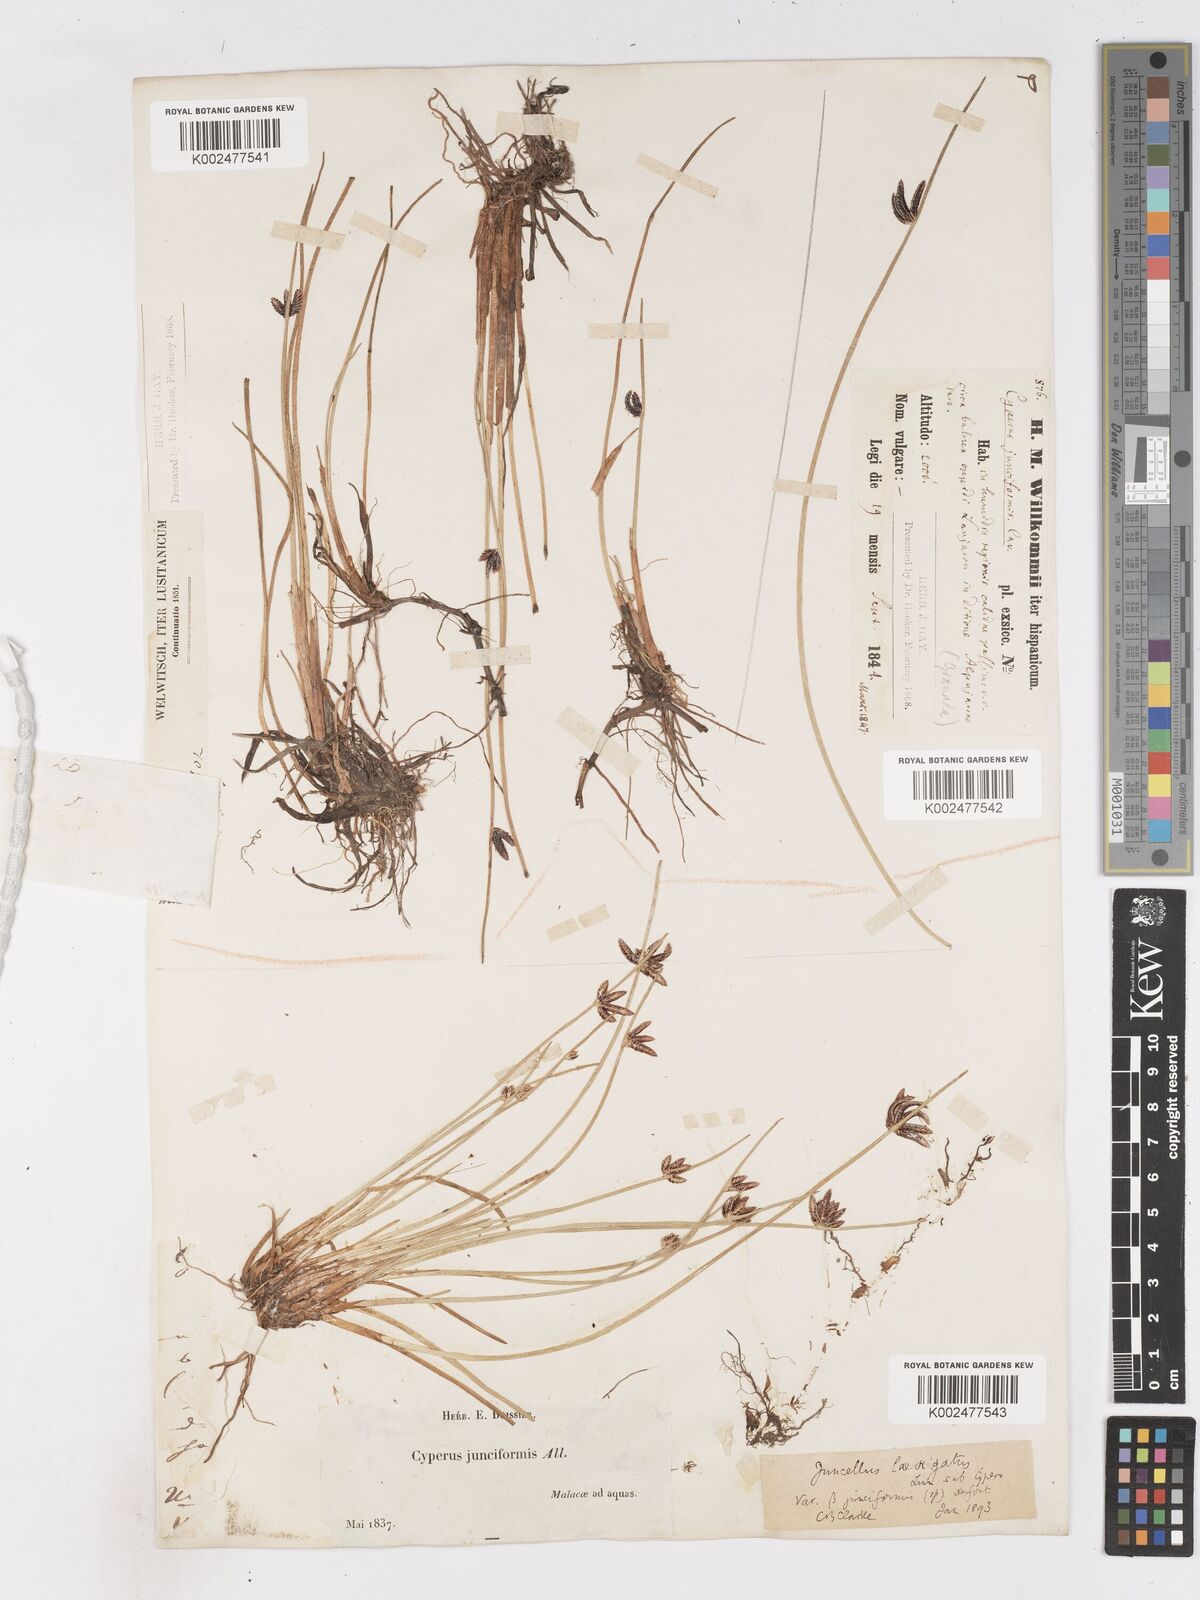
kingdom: Plantae
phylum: Tracheophyta
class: Liliopsida
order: Poales
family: Cyperaceae
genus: Cyperus
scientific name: Cyperus laevigatus
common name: Smooth flat sedge
